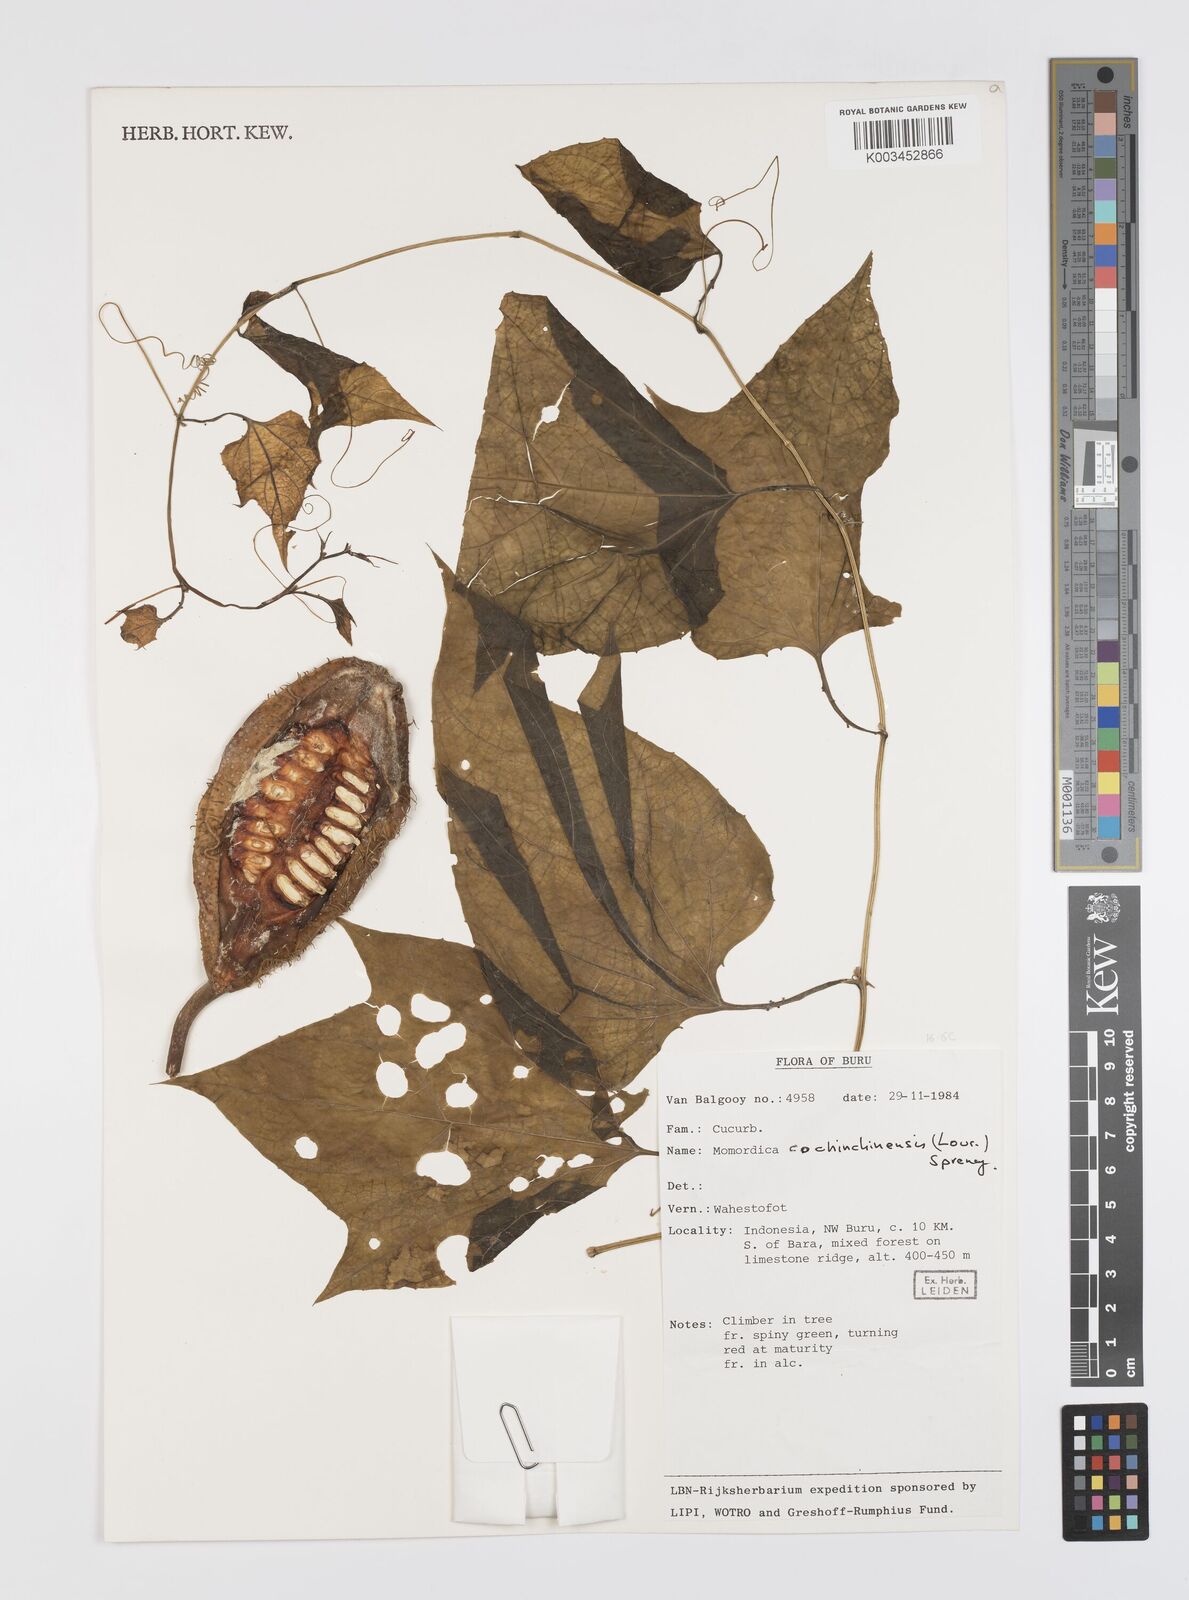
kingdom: Plantae
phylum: Tracheophyta
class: Magnoliopsida
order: Cucurbitales
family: Cucurbitaceae
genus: Momordica
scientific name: Momordica cochinchinensis
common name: Chinese bitter-cucumber
